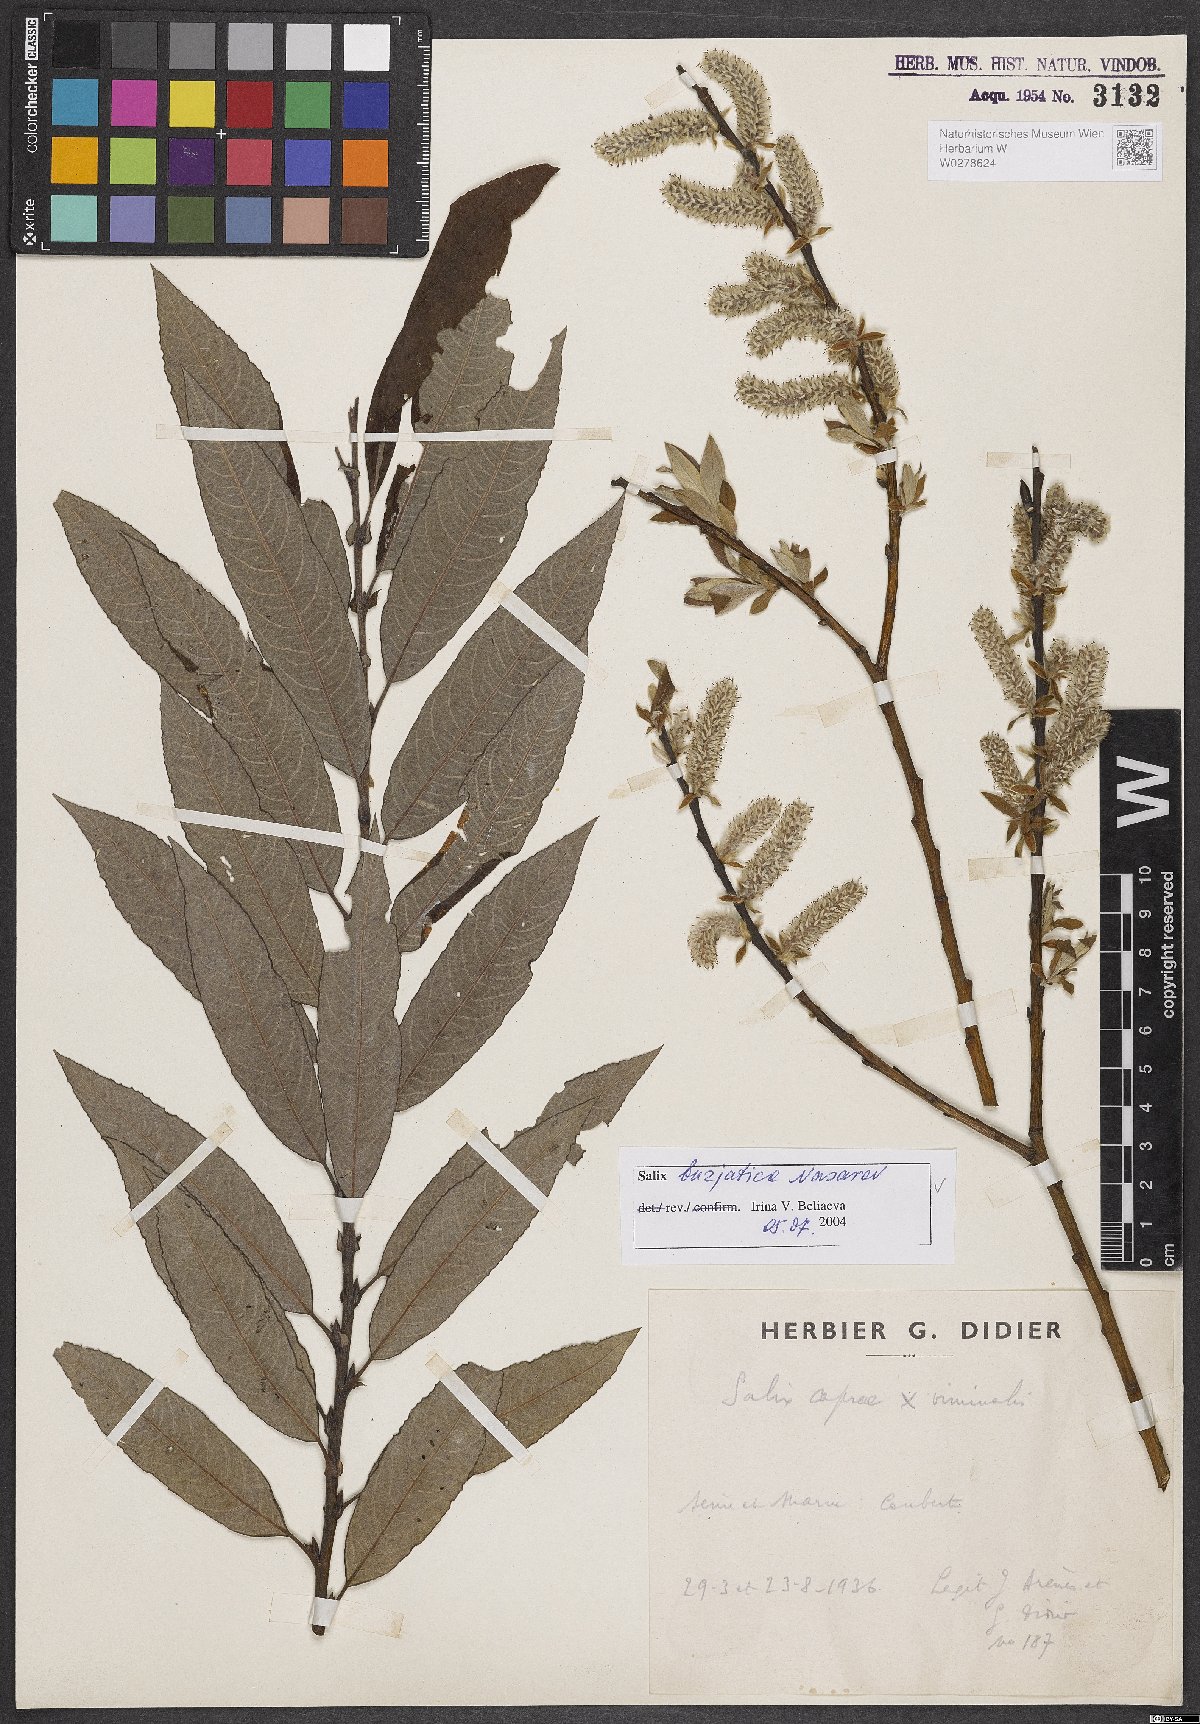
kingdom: Plantae
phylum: Tracheophyta
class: Magnoliopsida
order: Malpighiales
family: Salicaceae
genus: Salix
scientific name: Salix gmelinii
